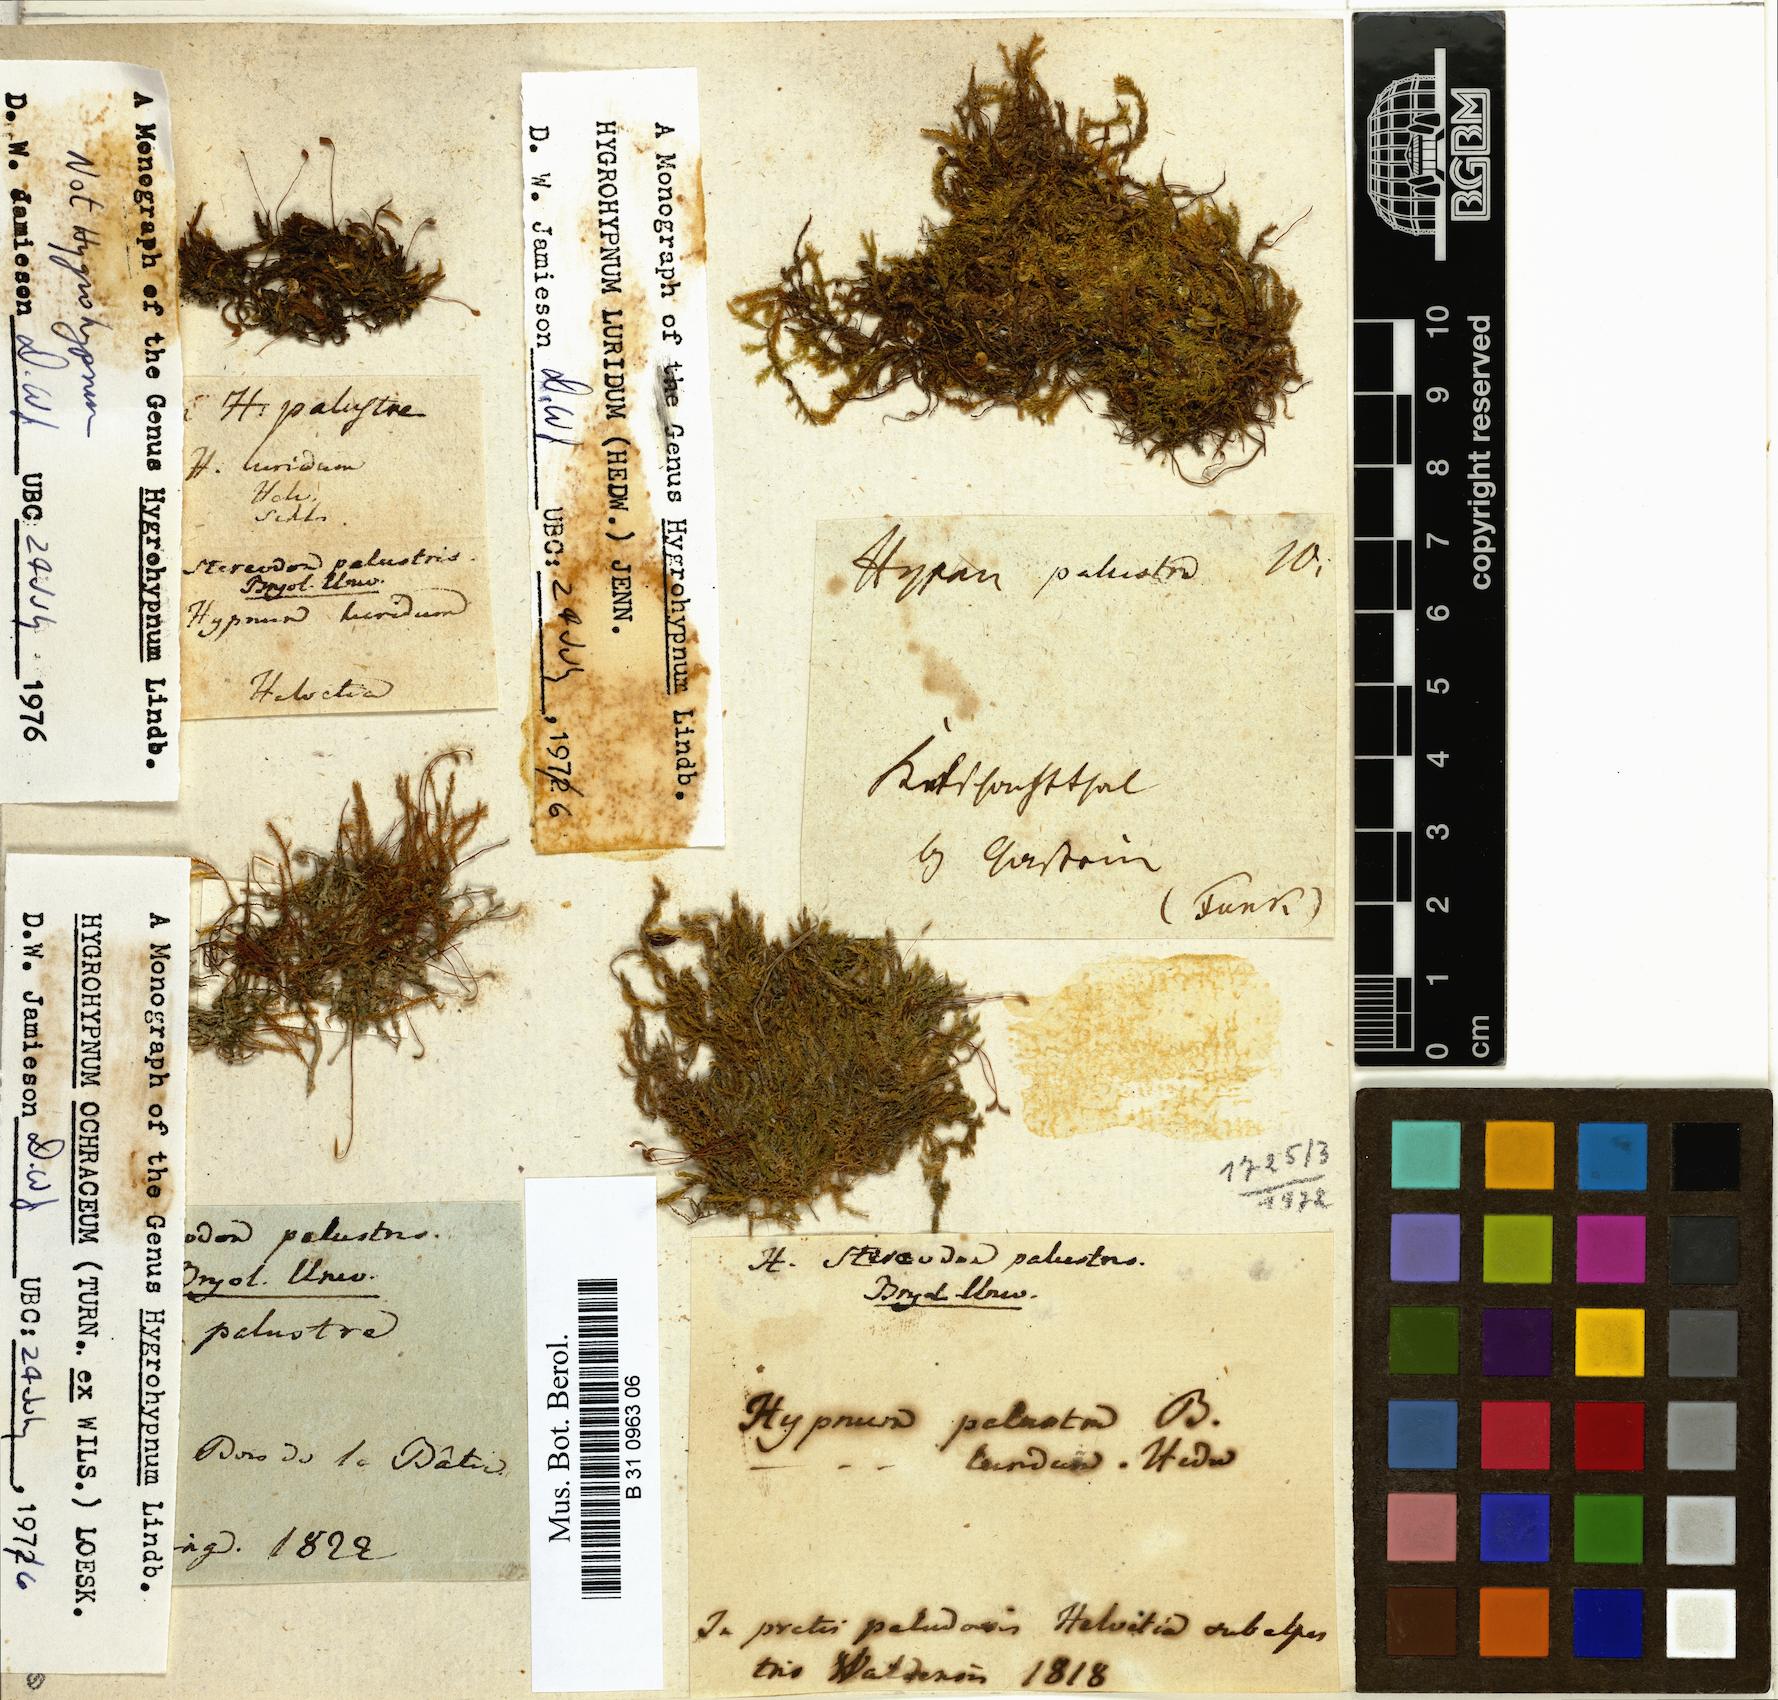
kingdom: Plantae
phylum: Bryophyta
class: Bryopsida
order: Hypnales
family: Amblystegiaceae
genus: Hygrohypnum
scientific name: Hygrohypnum luridum
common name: Drab brook moss
